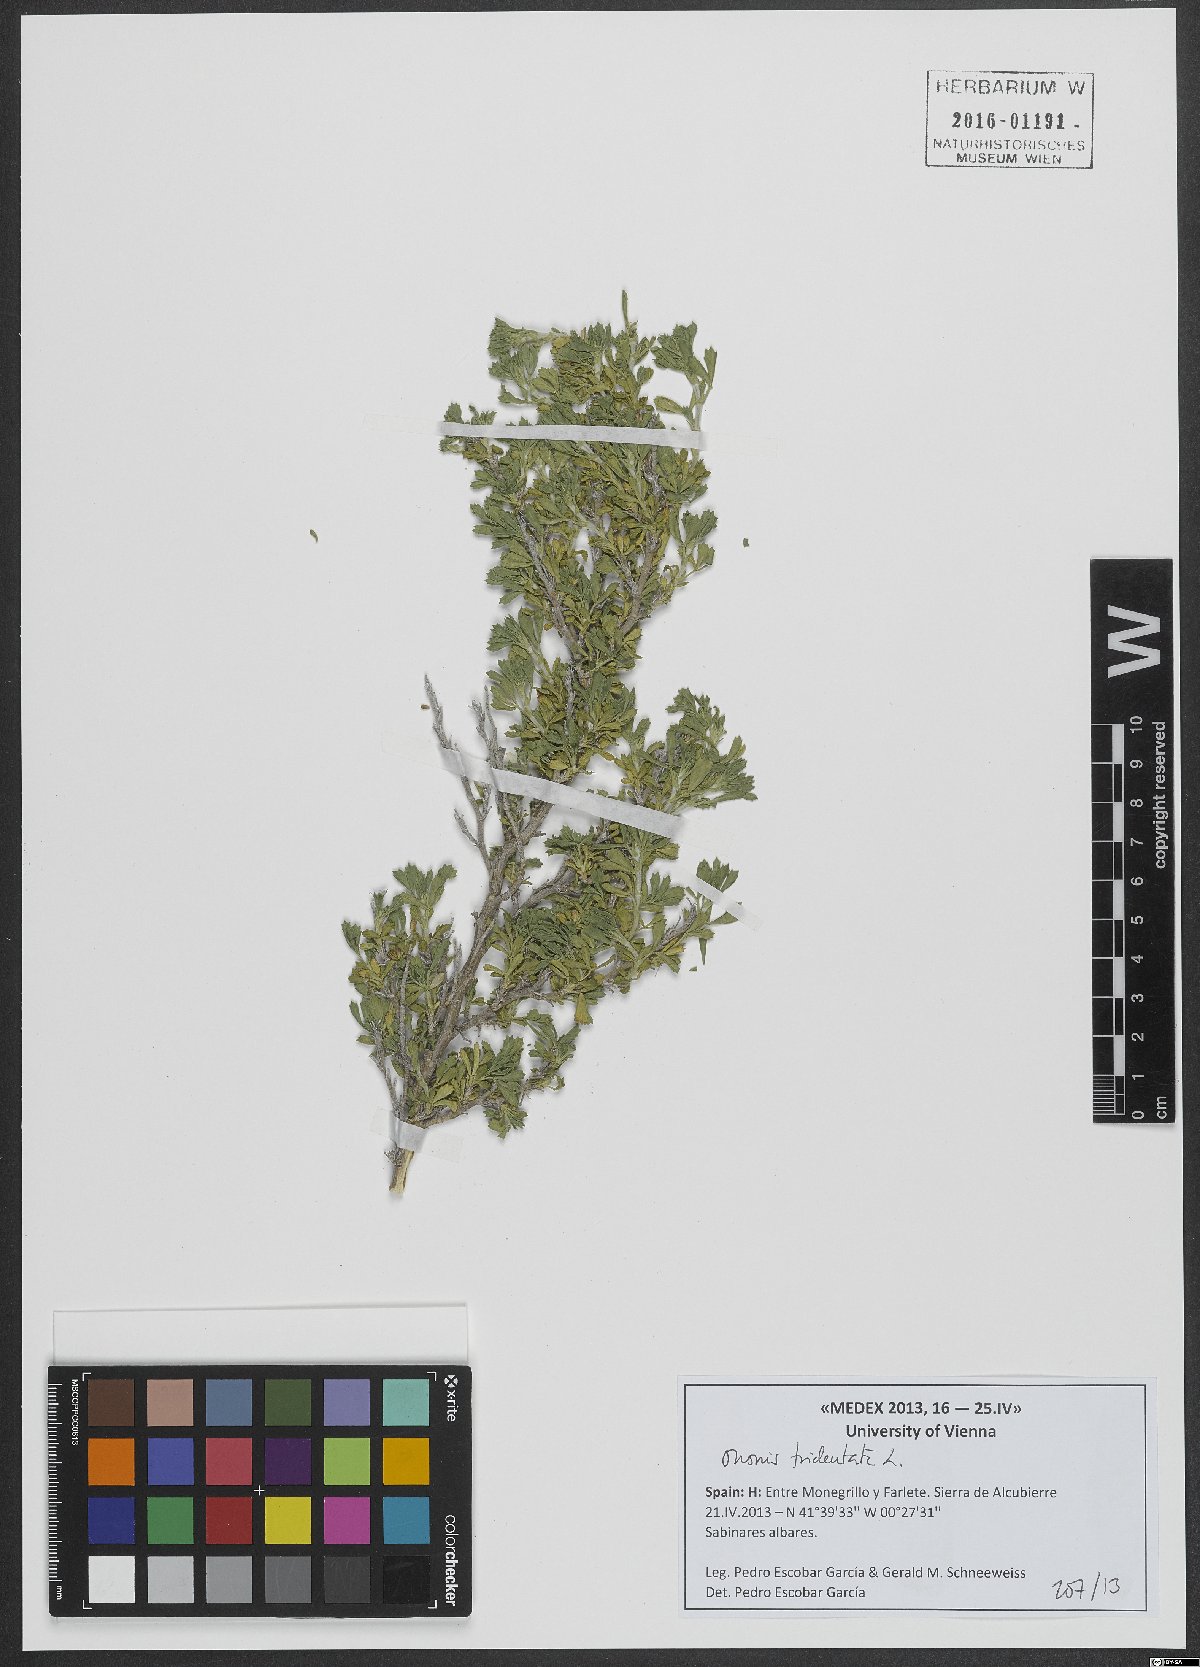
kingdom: Plantae
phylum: Tracheophyta
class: Magnoliopsida
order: Fabales
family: Fabaceae
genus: Ononis
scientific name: Ononis tridentata
